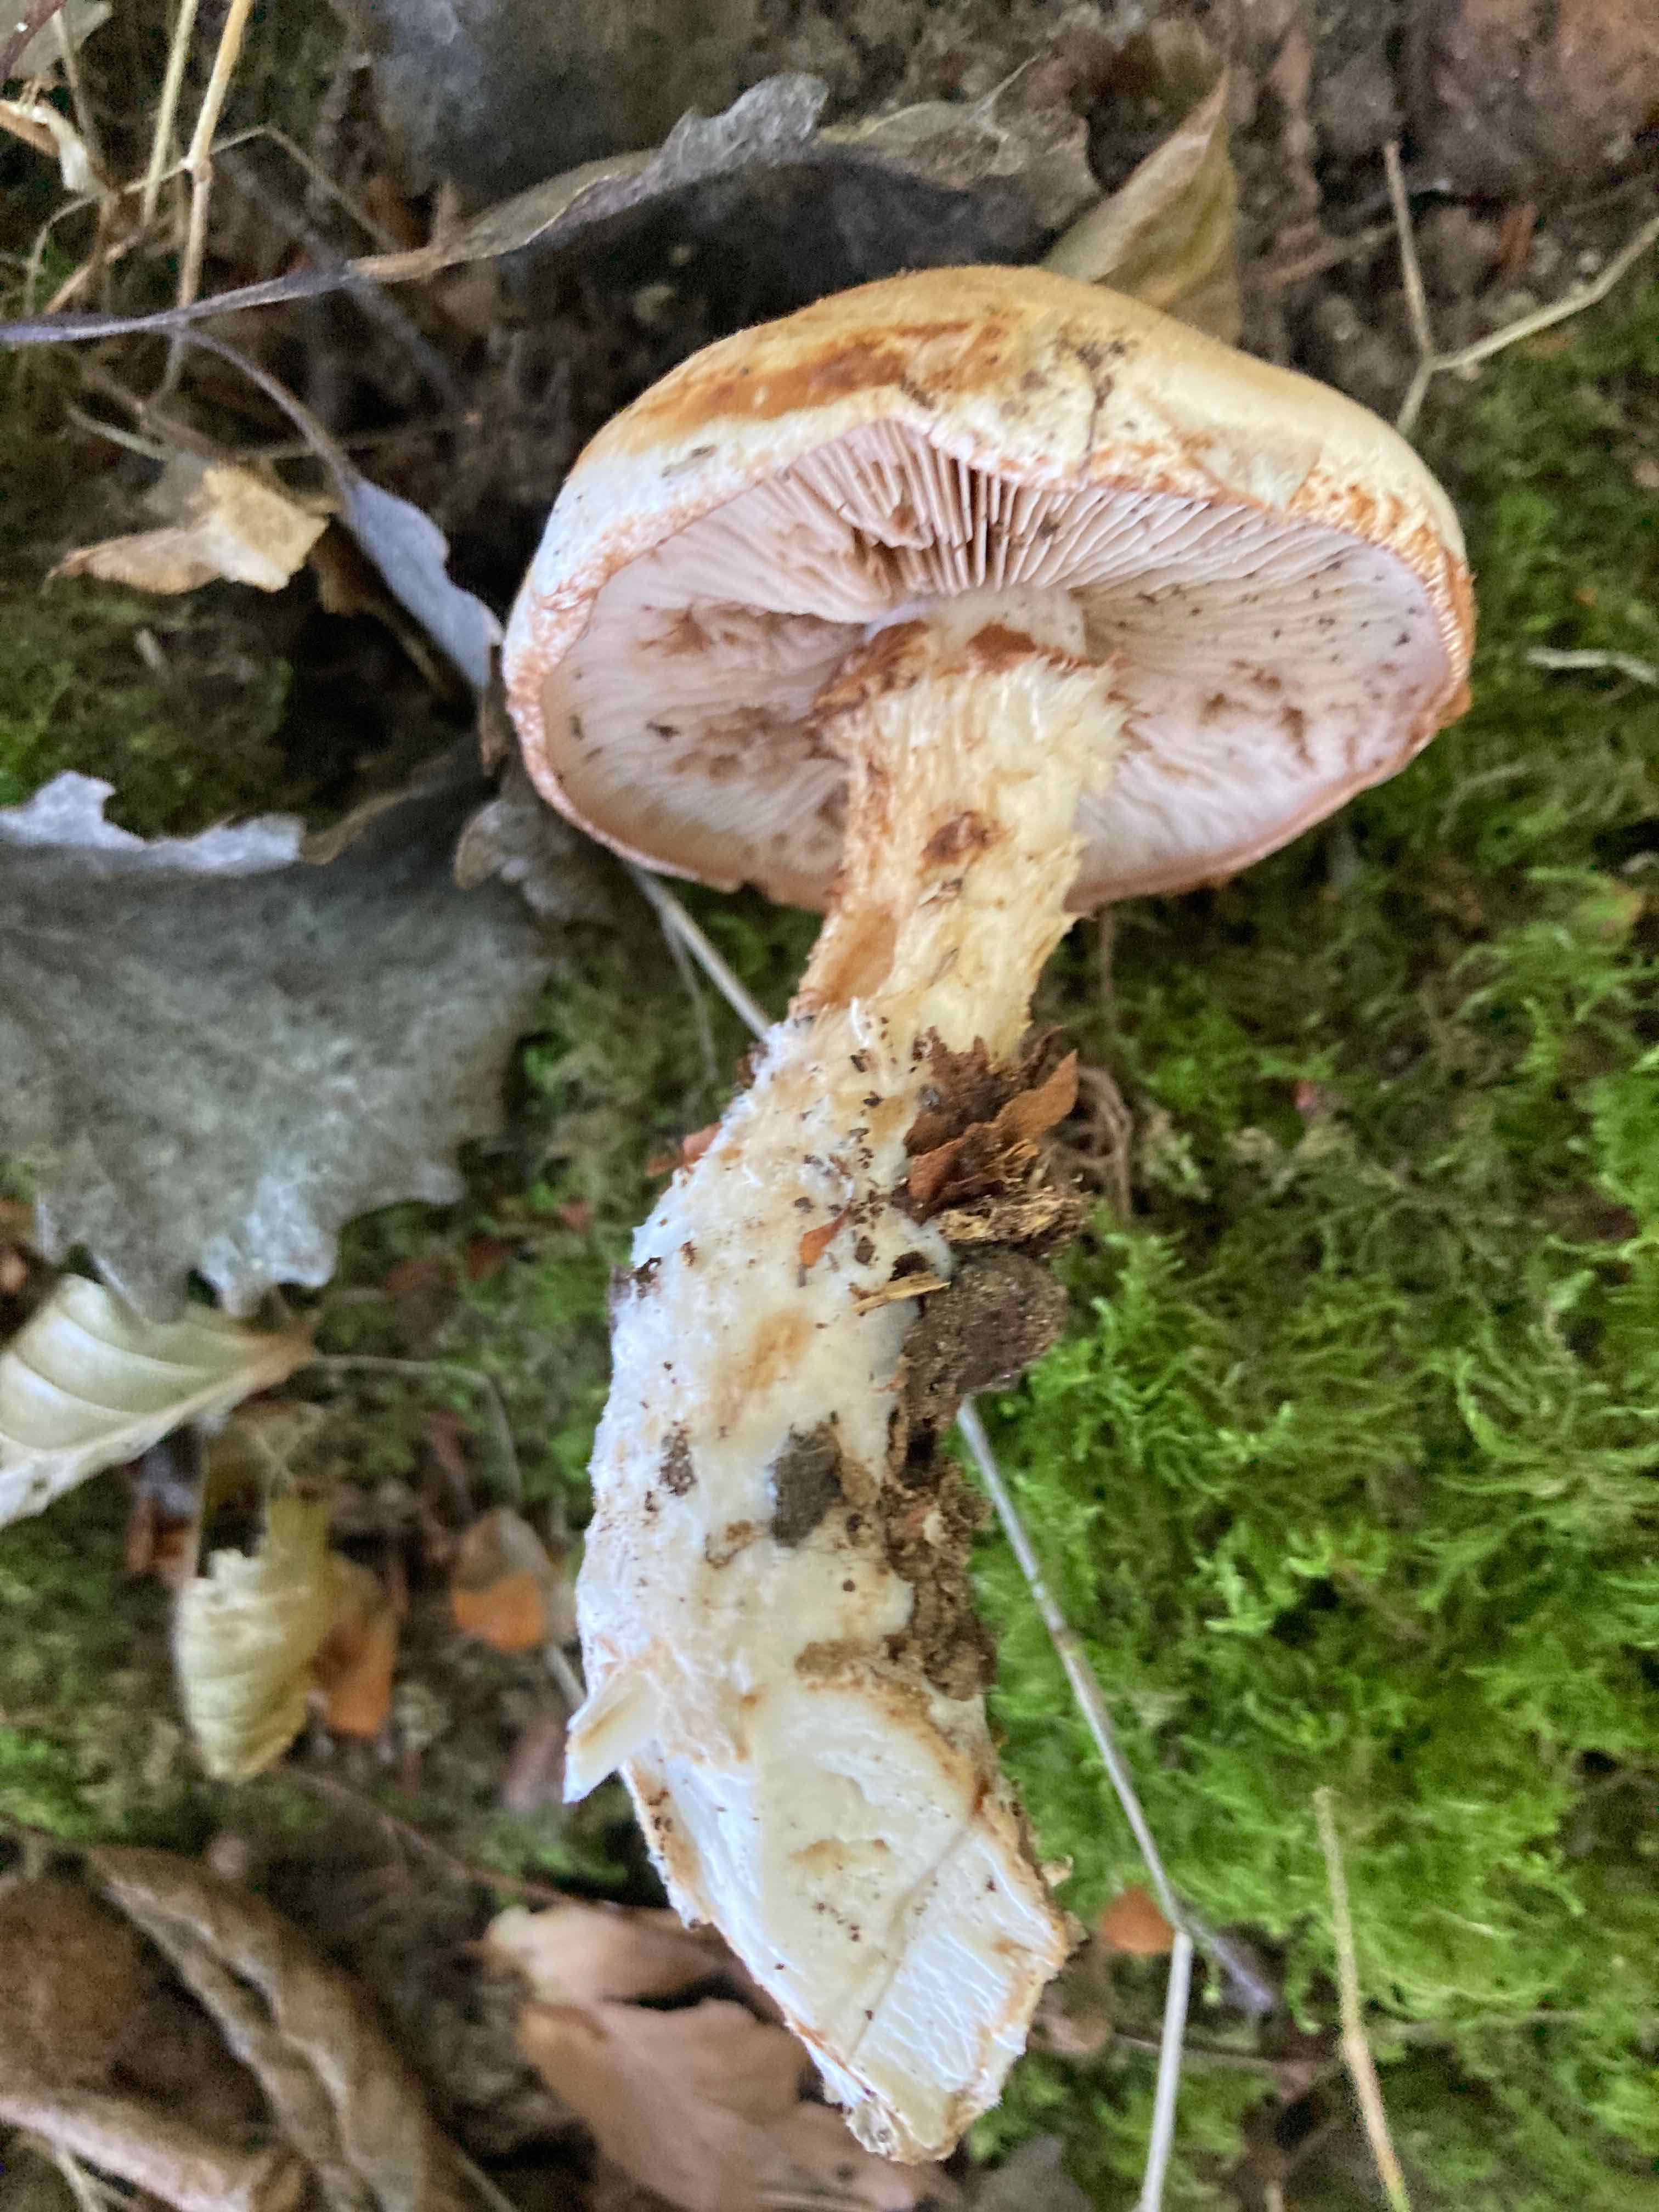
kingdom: Fungi
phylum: Basidiomycota
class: Agaricomycetes
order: Agaricales
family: Hymenogastraceae
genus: Hebeloma
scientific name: Hebeloma radicosum
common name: pælerods-tåreblad
